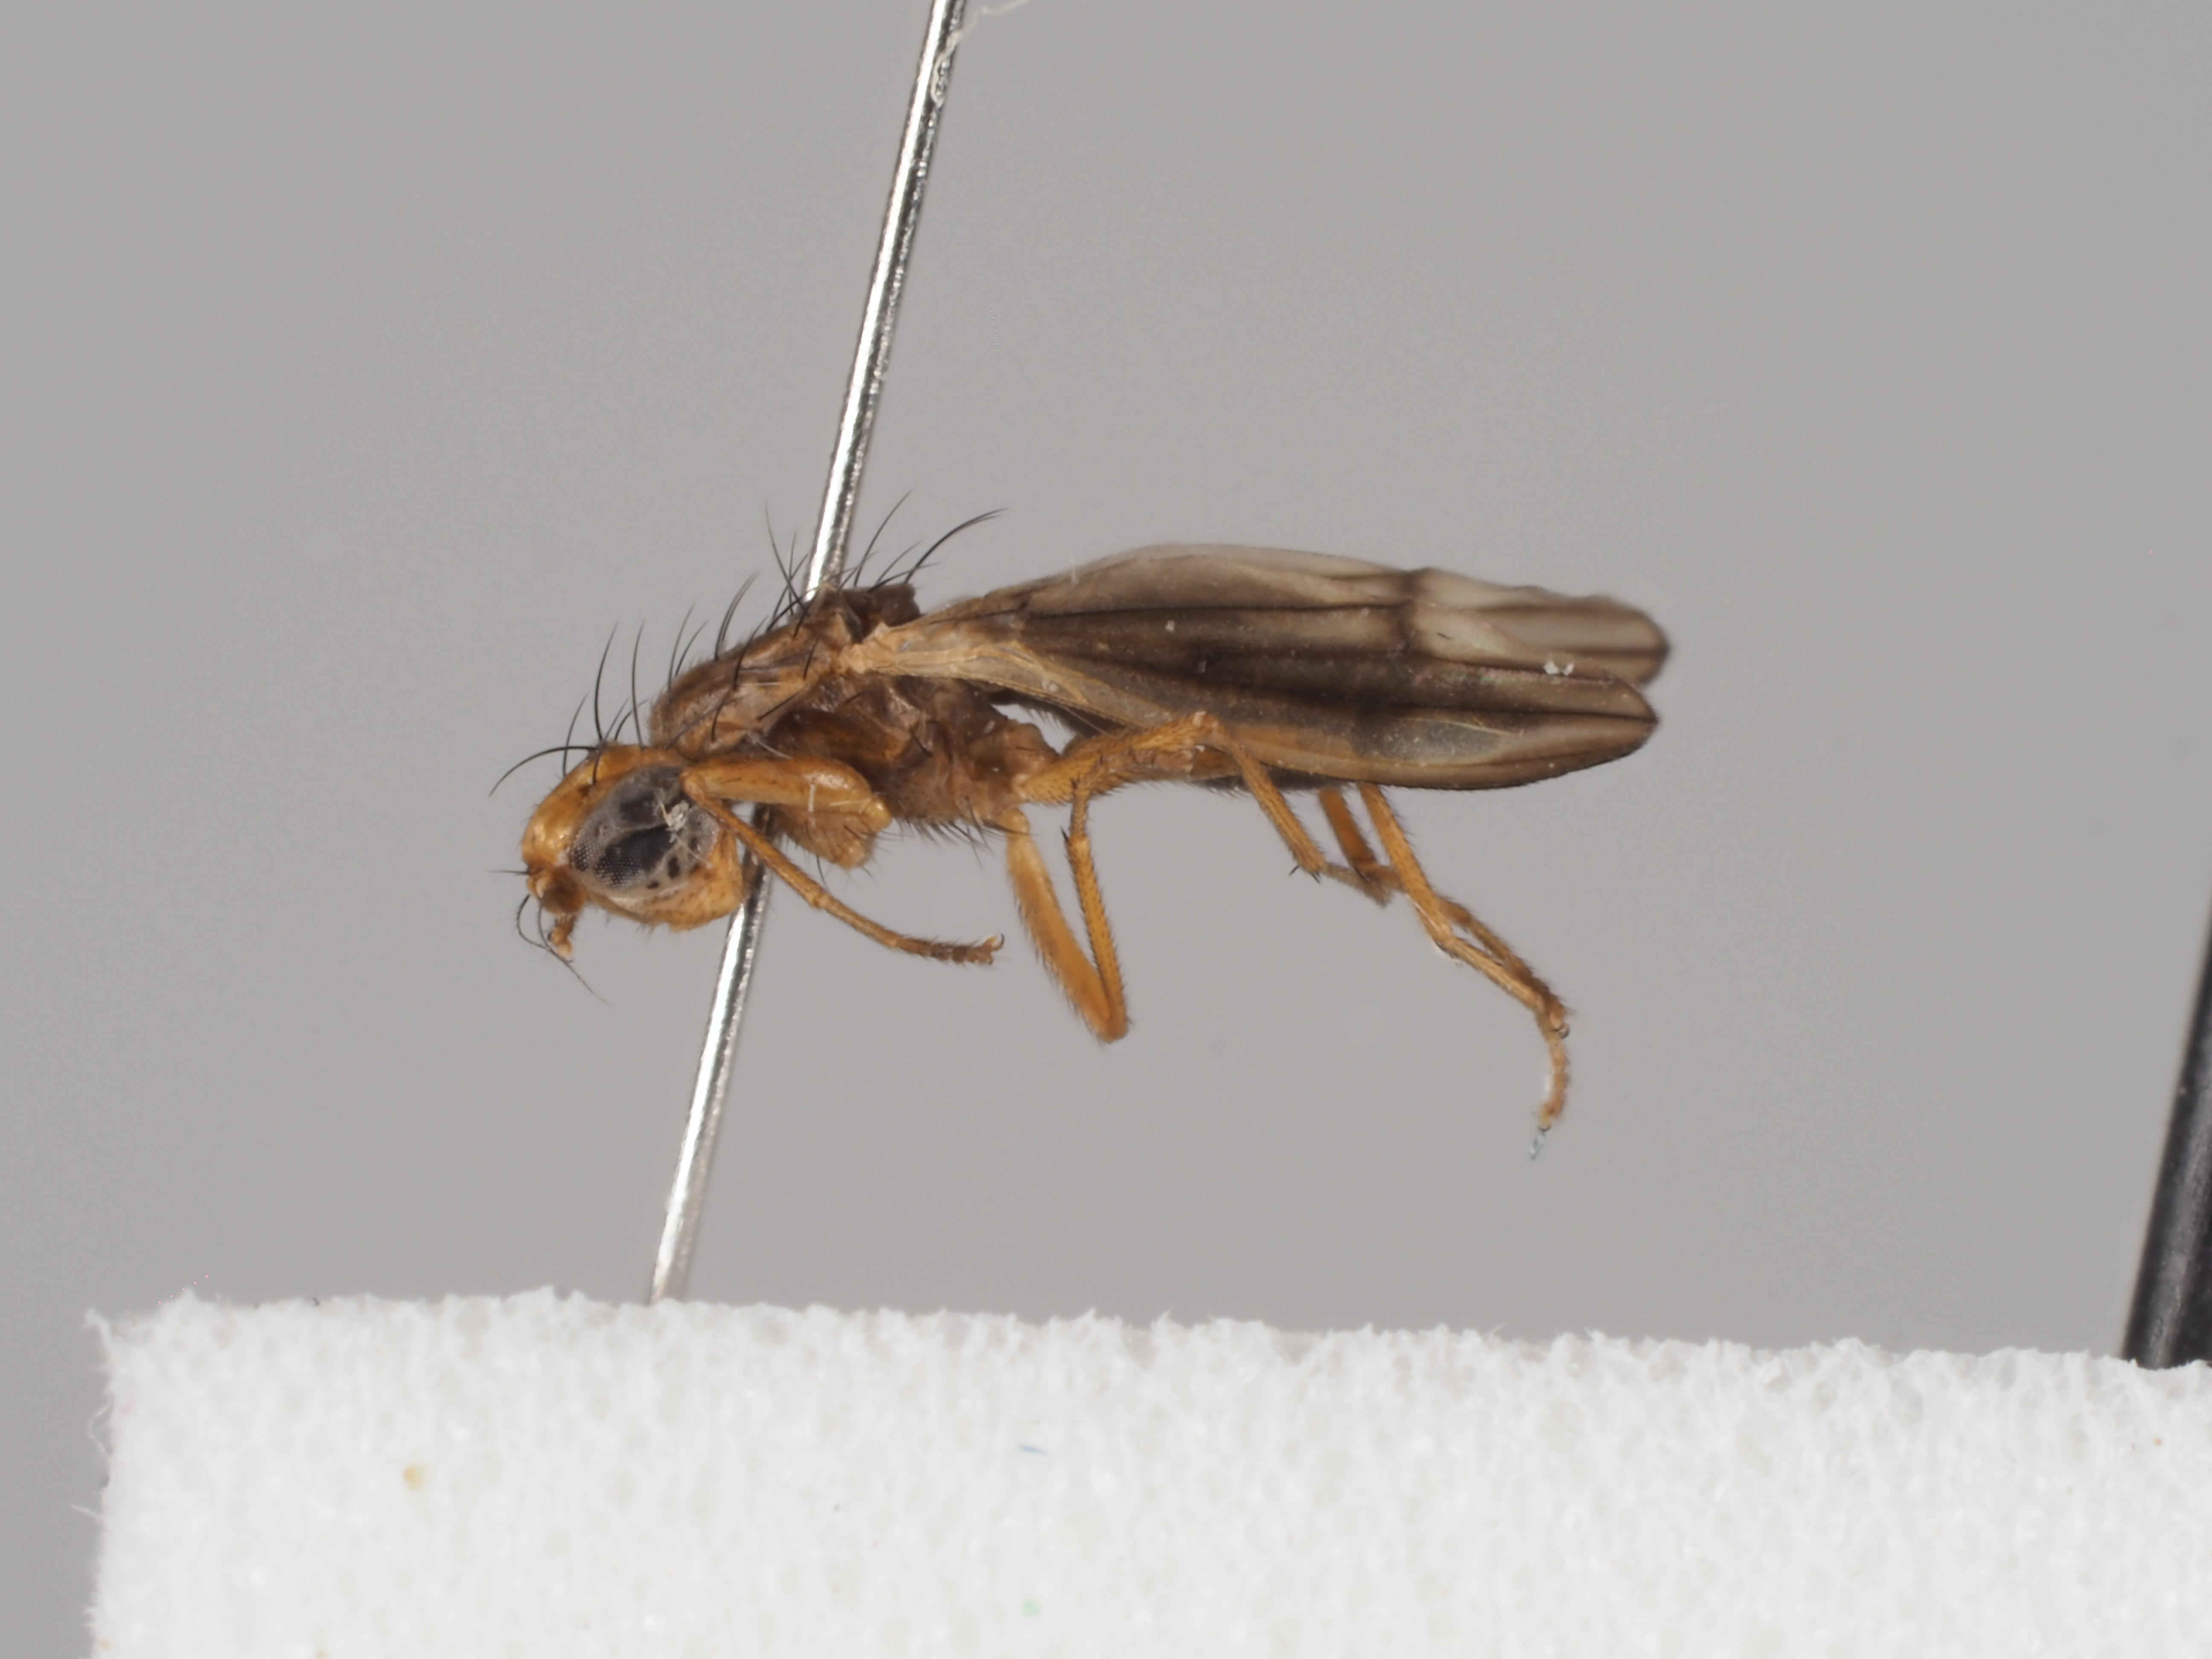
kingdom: Animalia
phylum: Arthropoda
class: Insecta
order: Diptera
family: Opomyzidae
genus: Opomyza
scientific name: Opomyza nigriventris
